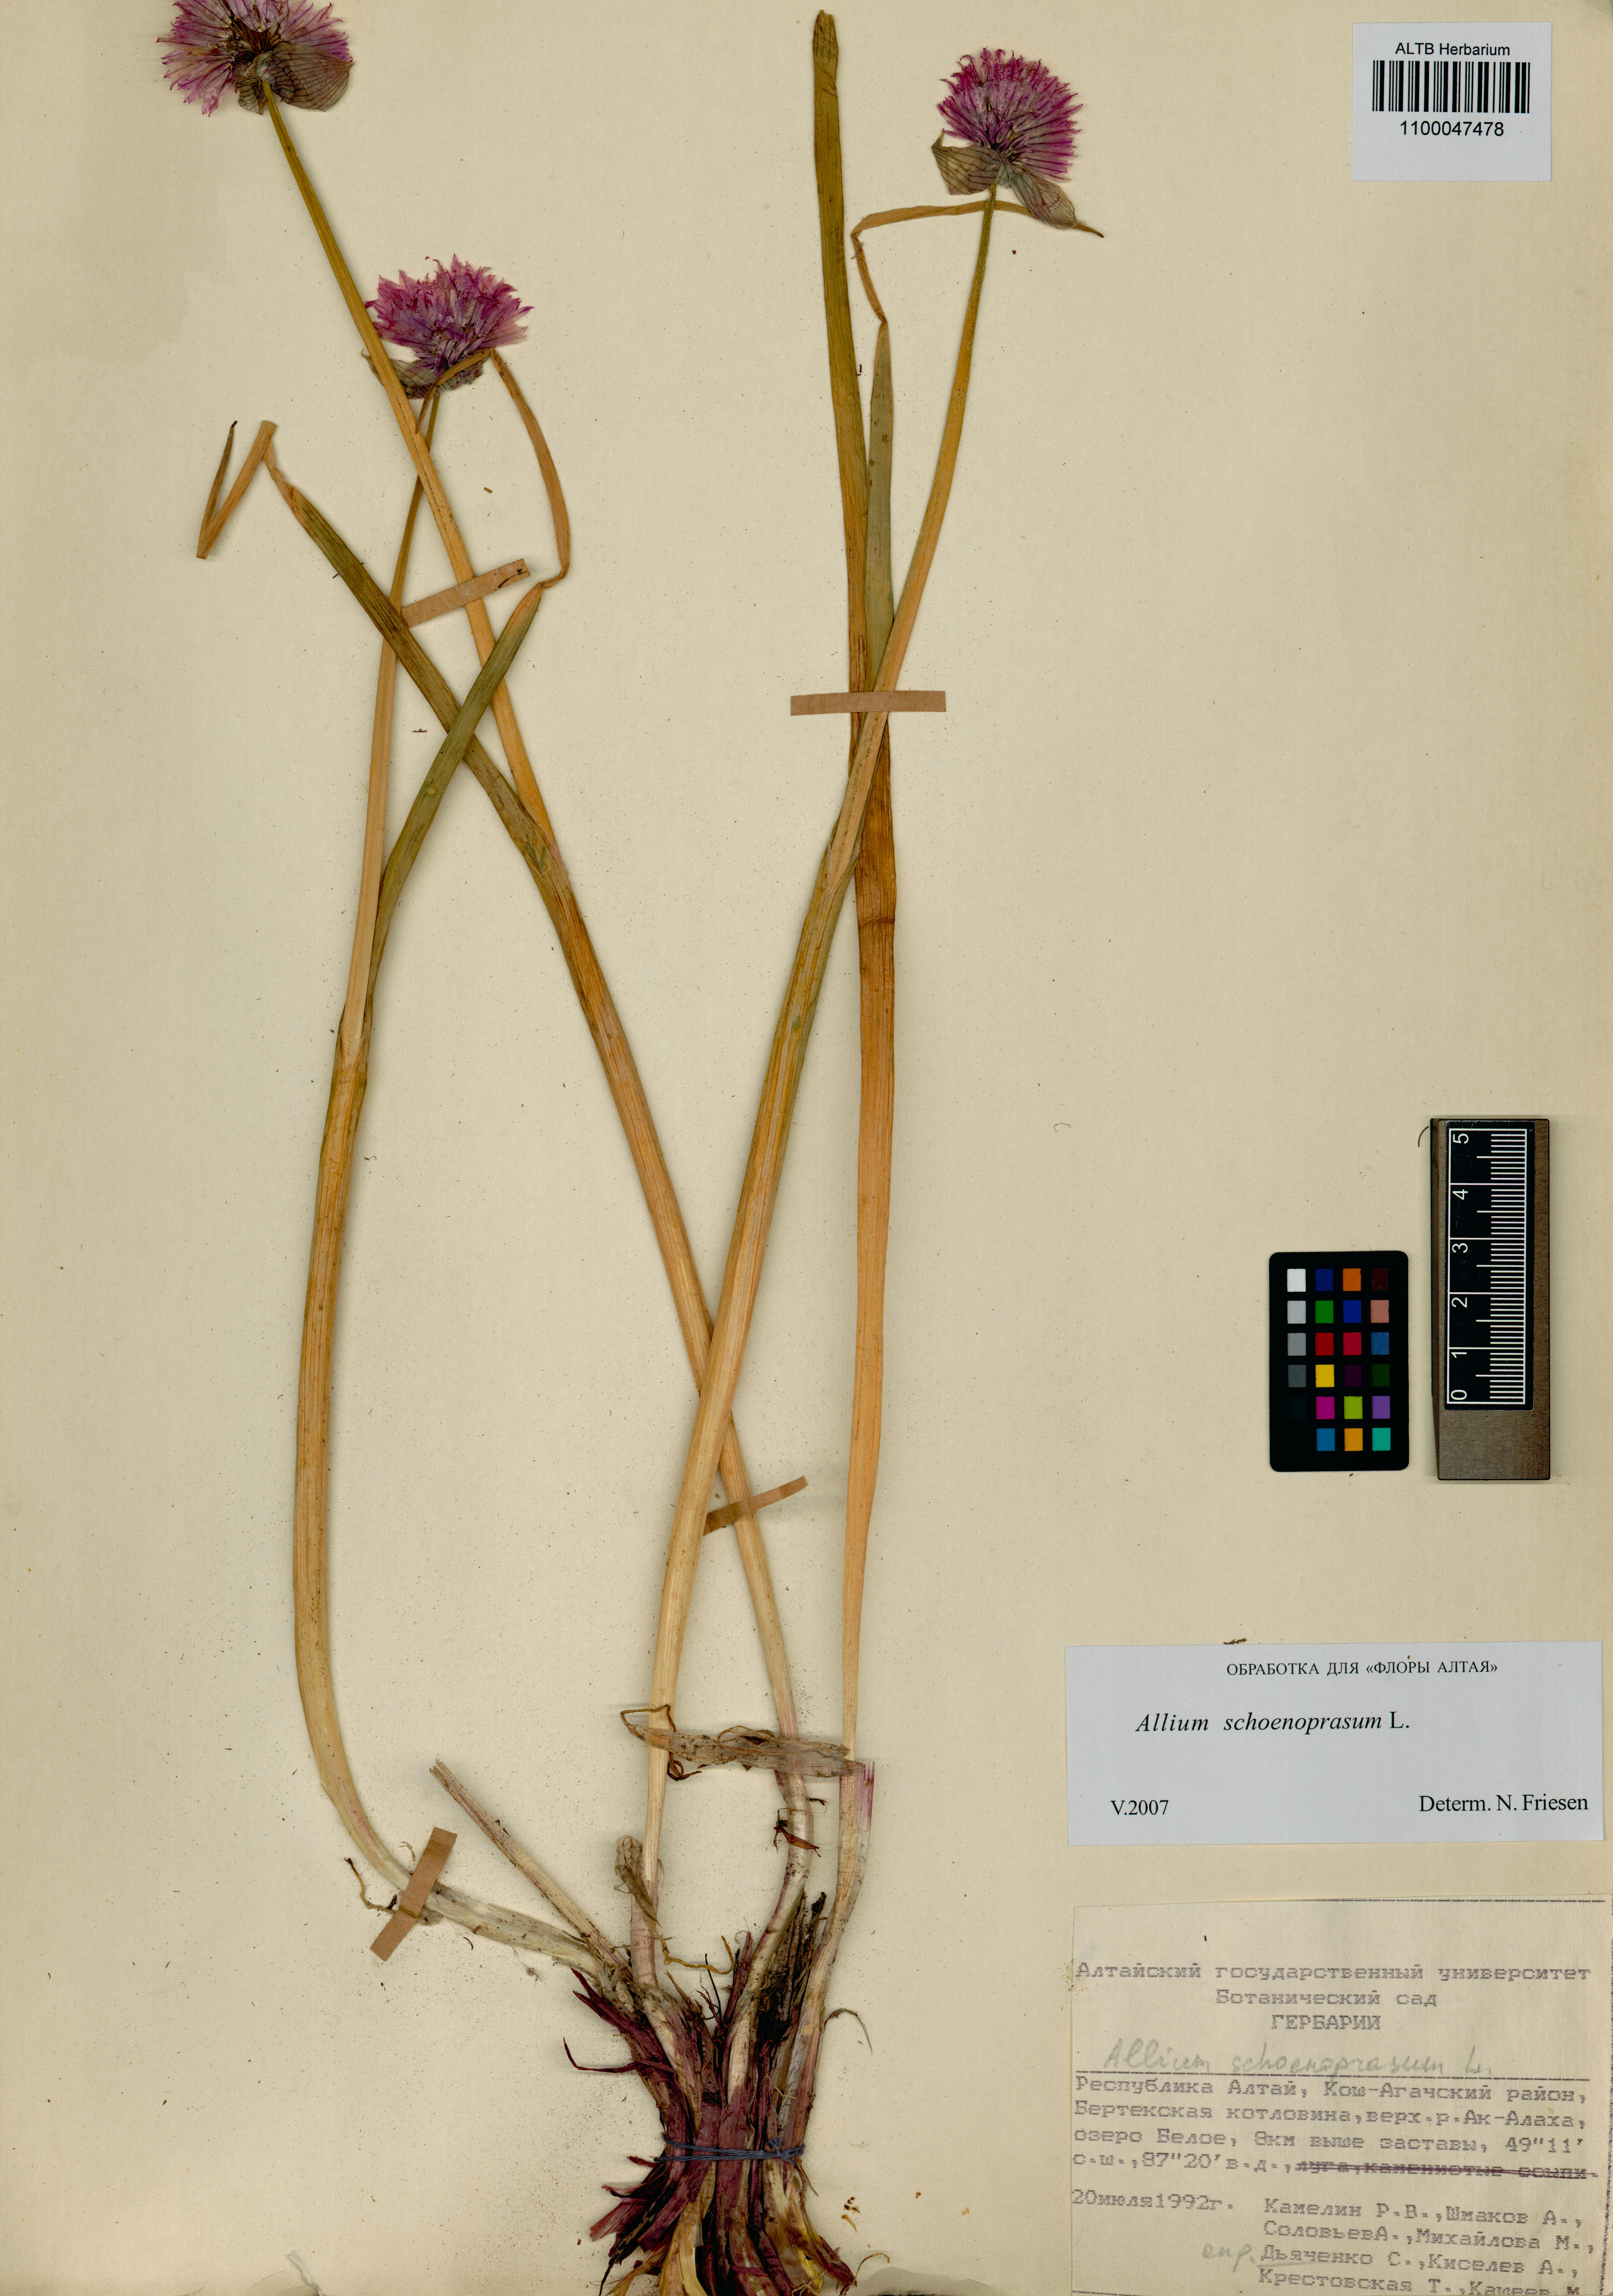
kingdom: Plantae
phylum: Tracheophyta
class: Liliopsida
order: Asparagales
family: Amaryllidaceae
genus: Allium
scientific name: Allium schoenoprasum
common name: Chives
